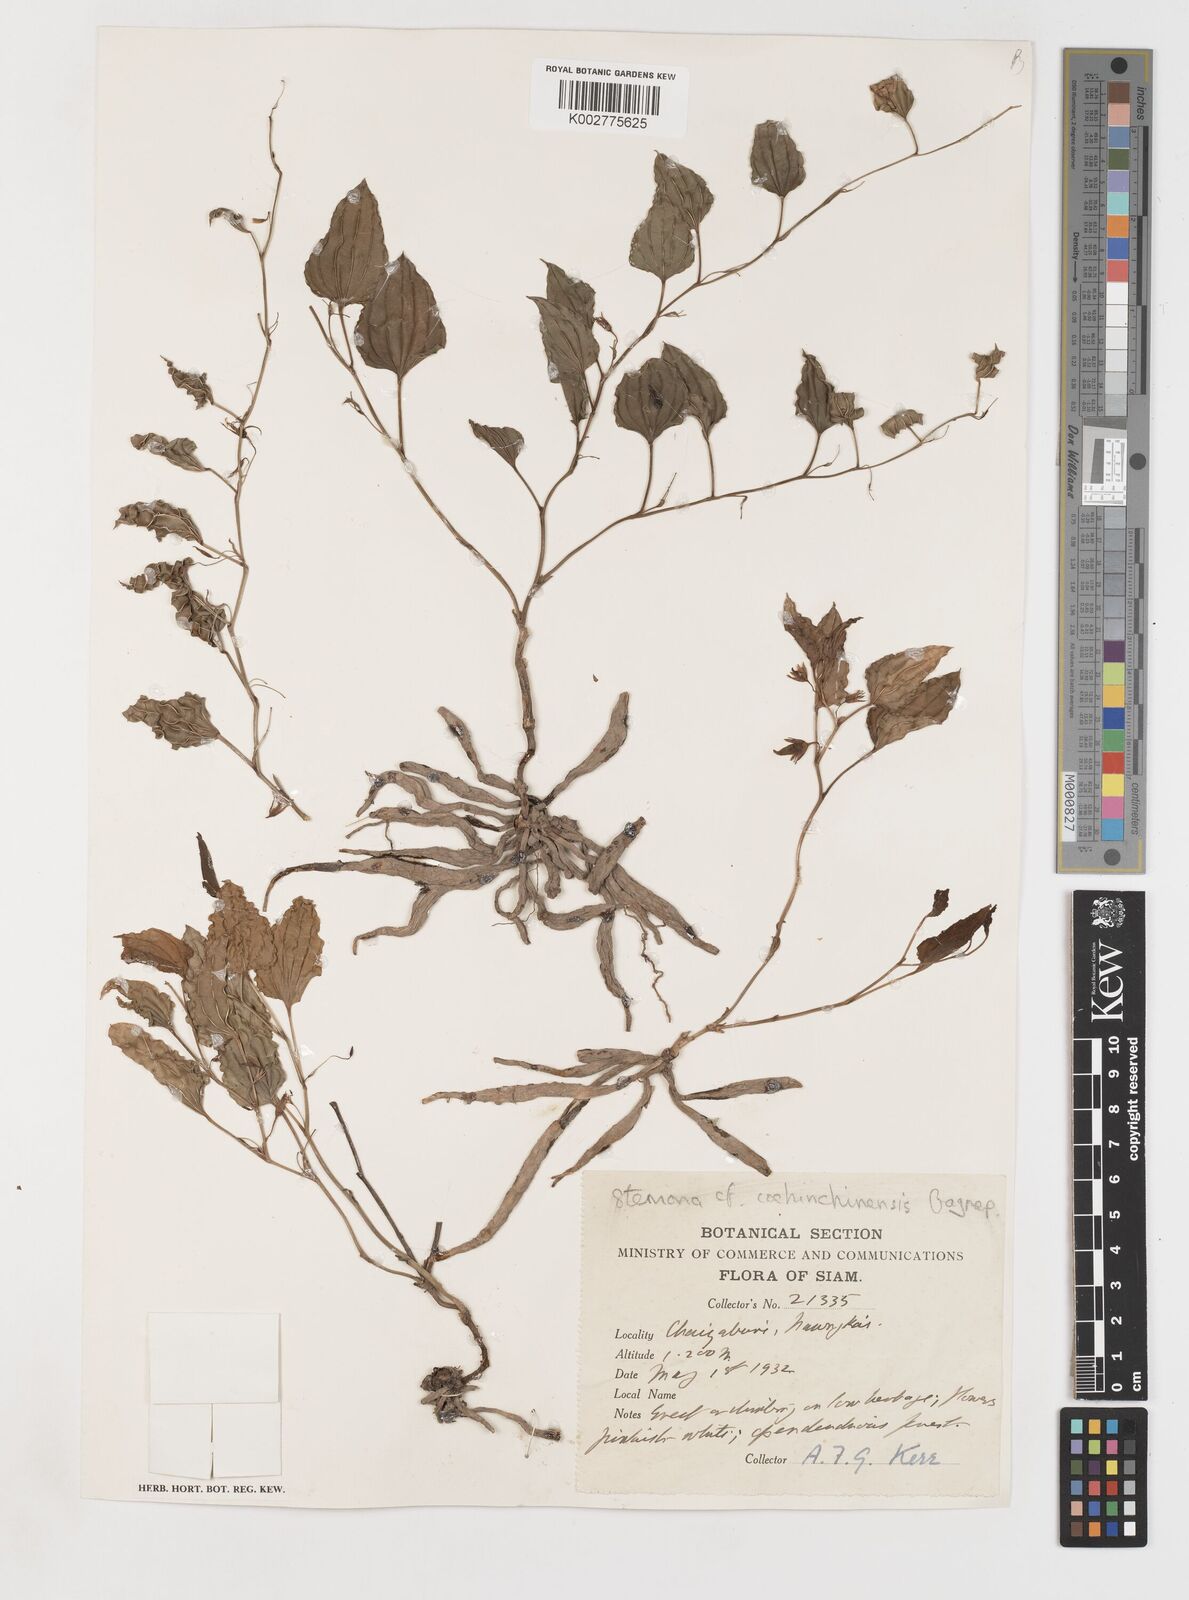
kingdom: Plantae
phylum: Tracheophyta
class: Liliopsida
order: Pandanales
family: Stemonaceae
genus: Stemona
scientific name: Stemona cochinchinensis
